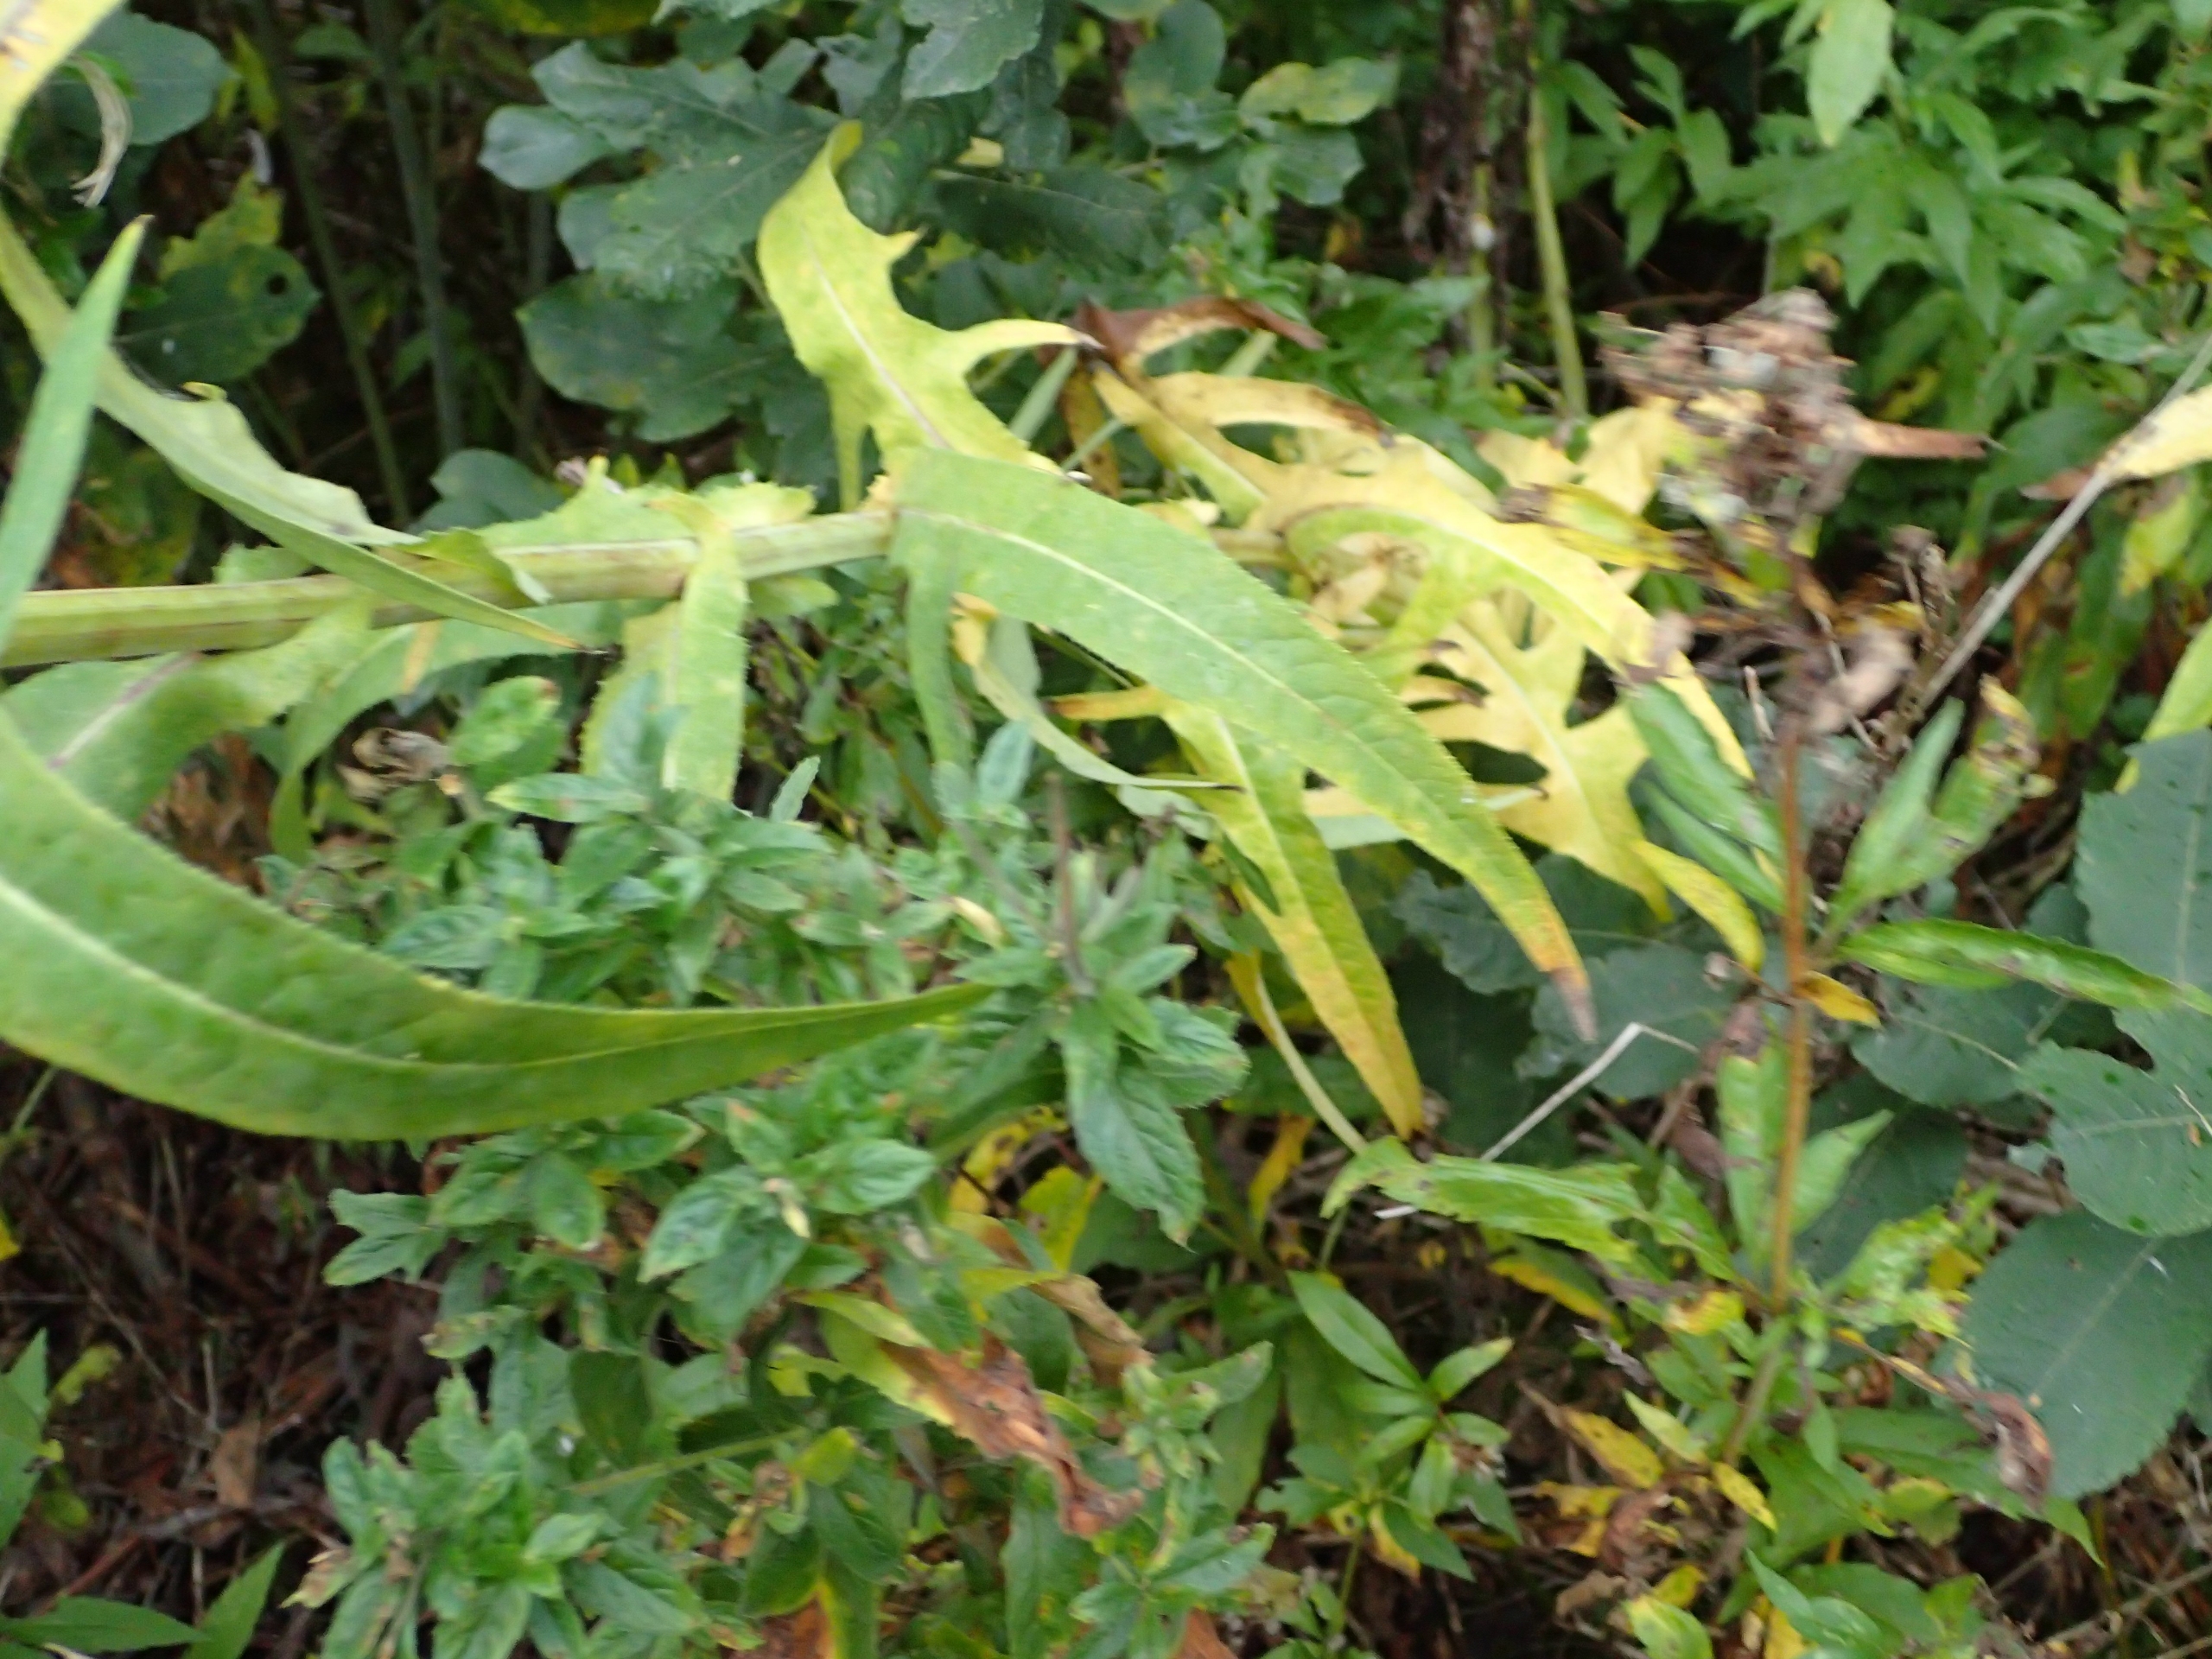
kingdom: Plantae
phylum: Tracheophyta
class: Magnoliopsida
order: Asterales
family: Asteraceae
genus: Sonchus
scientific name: Sonchus palustris
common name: Kær-svinemælk
